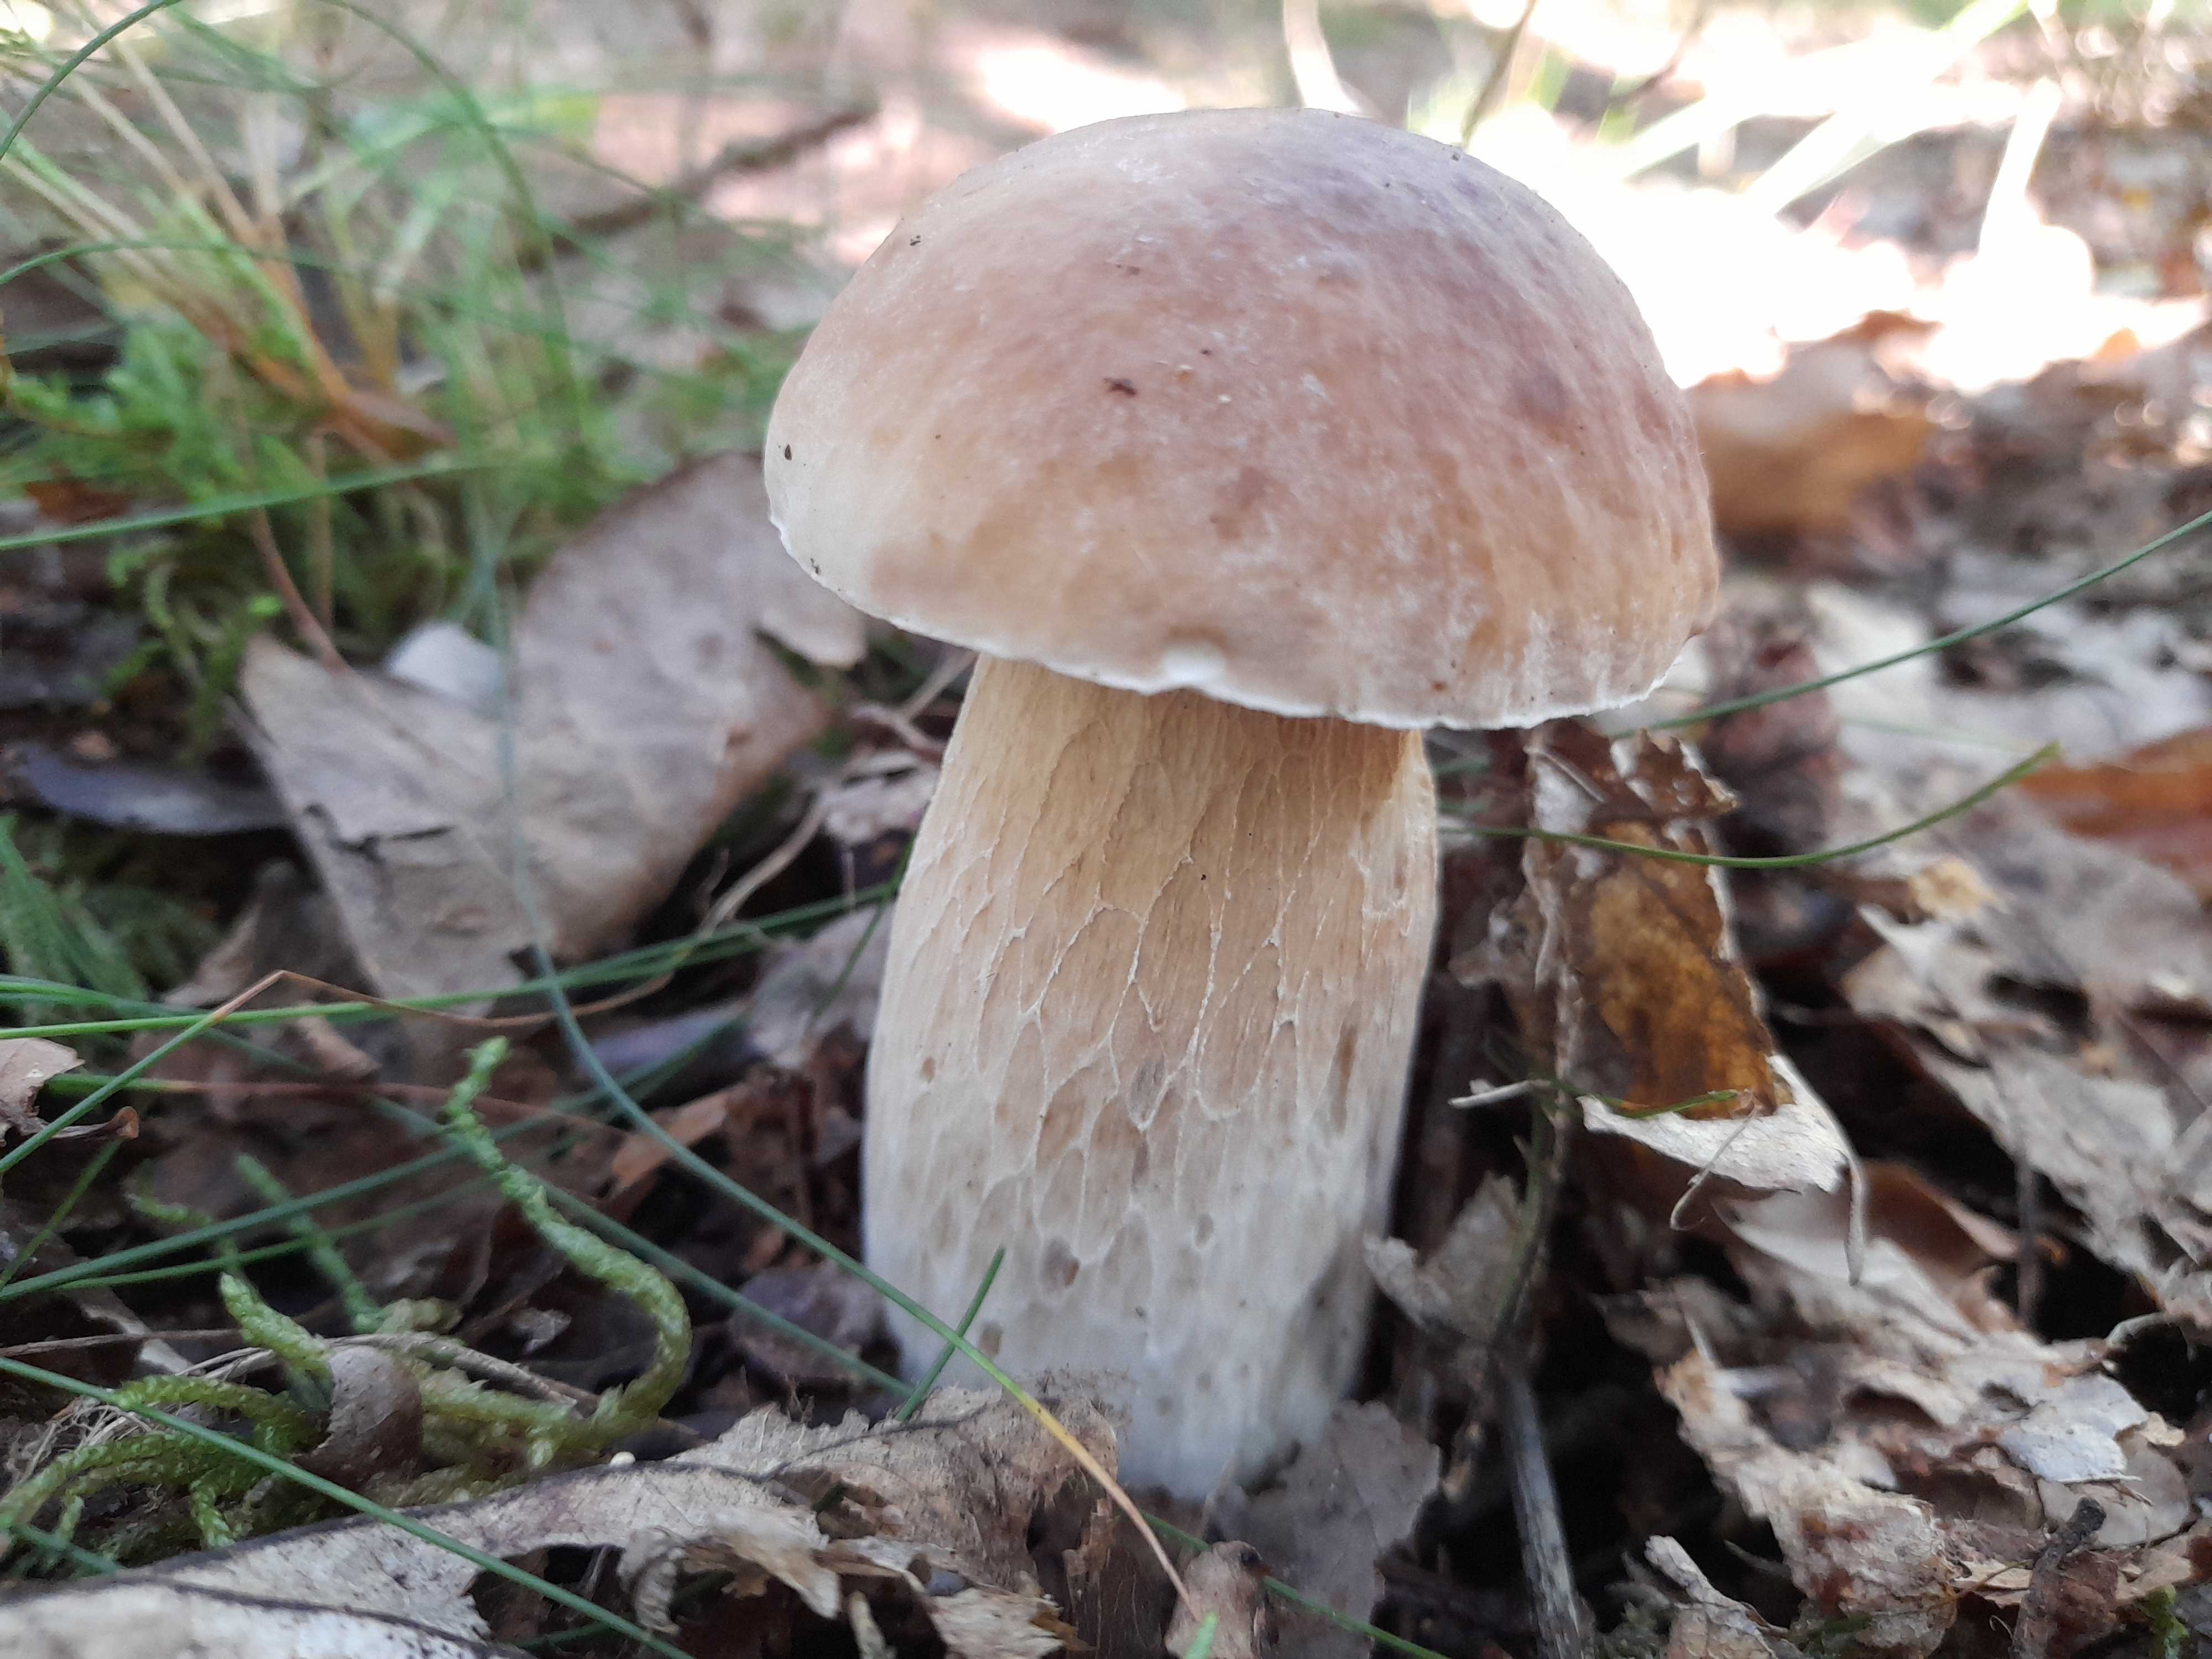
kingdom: Fungi
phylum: Basidiomycota
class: Agaricomycetes
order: Boletales
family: Boletaceae
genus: Boletus
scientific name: Boletus edulis
